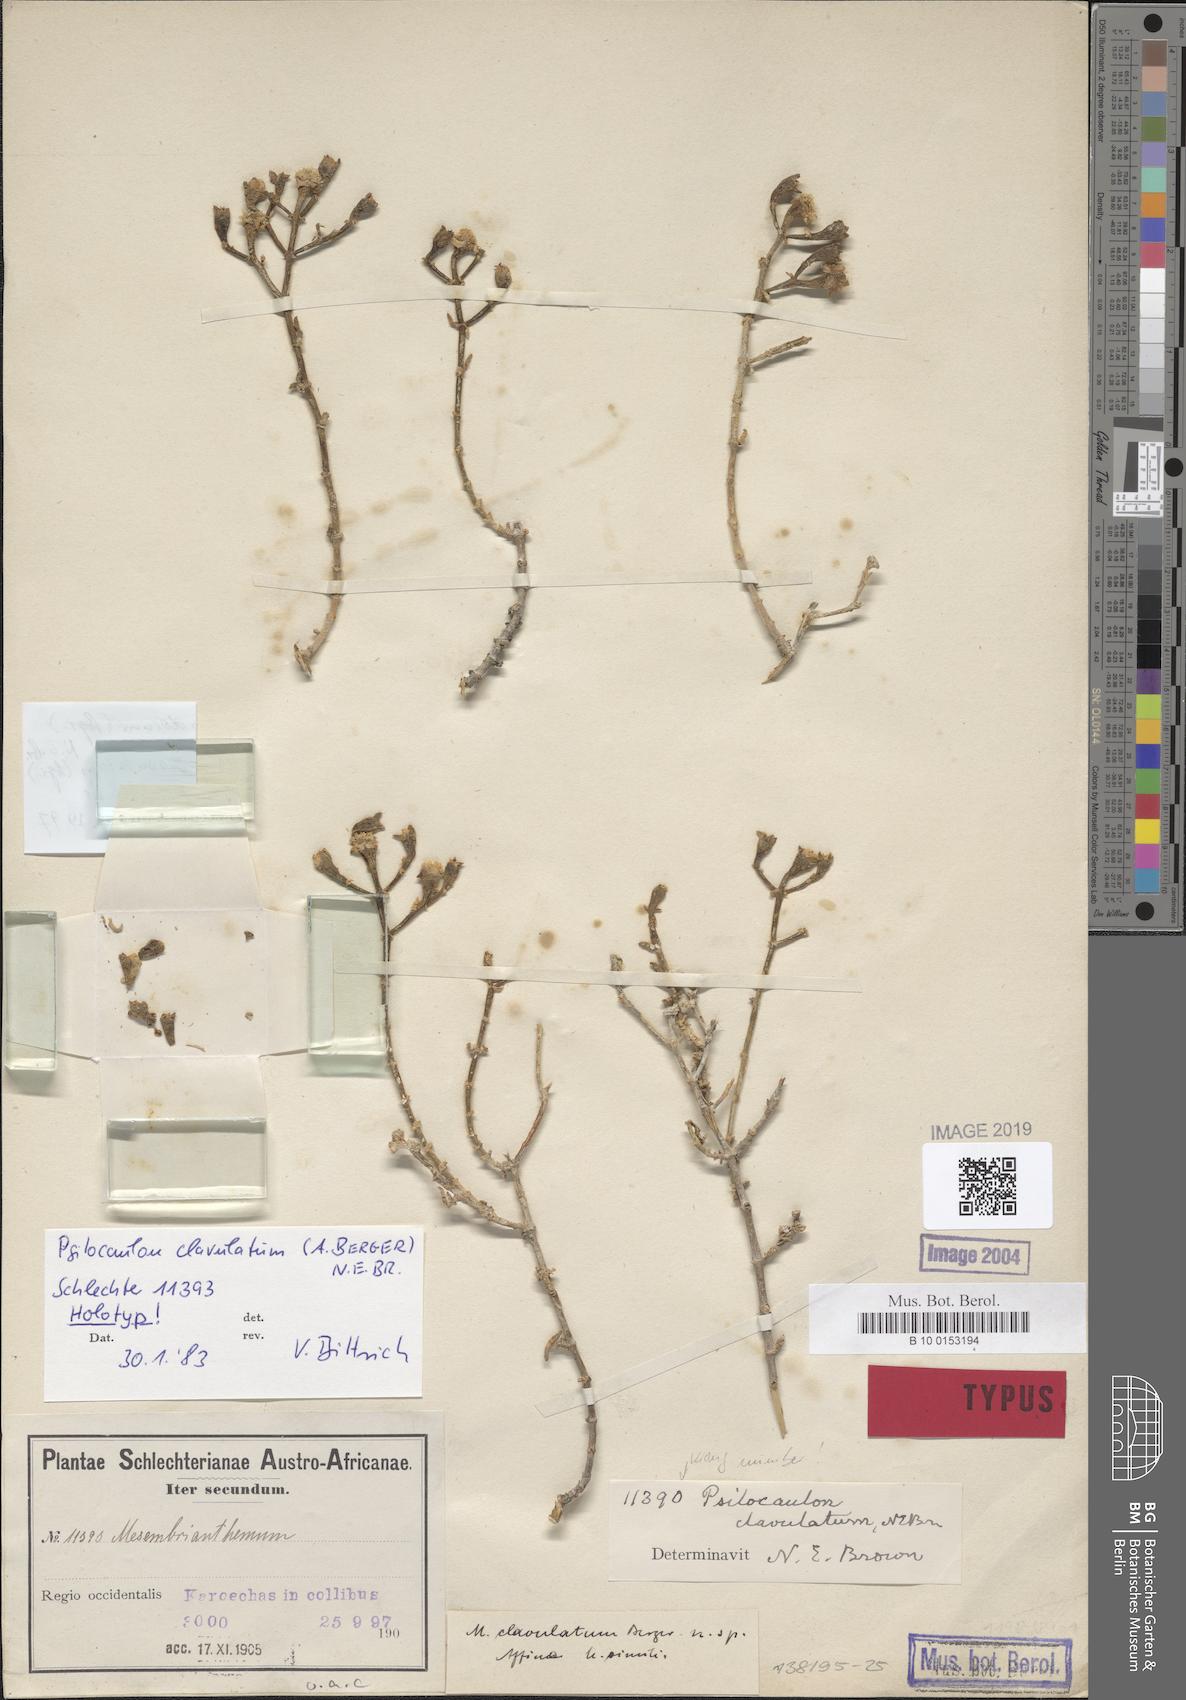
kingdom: Plantae
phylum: Tracheophyta
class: Magnoliopsida
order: Caryophyllales
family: Aizoaceae
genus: Mesembryanthemum
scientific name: Mesembryanthemum subnodosum
